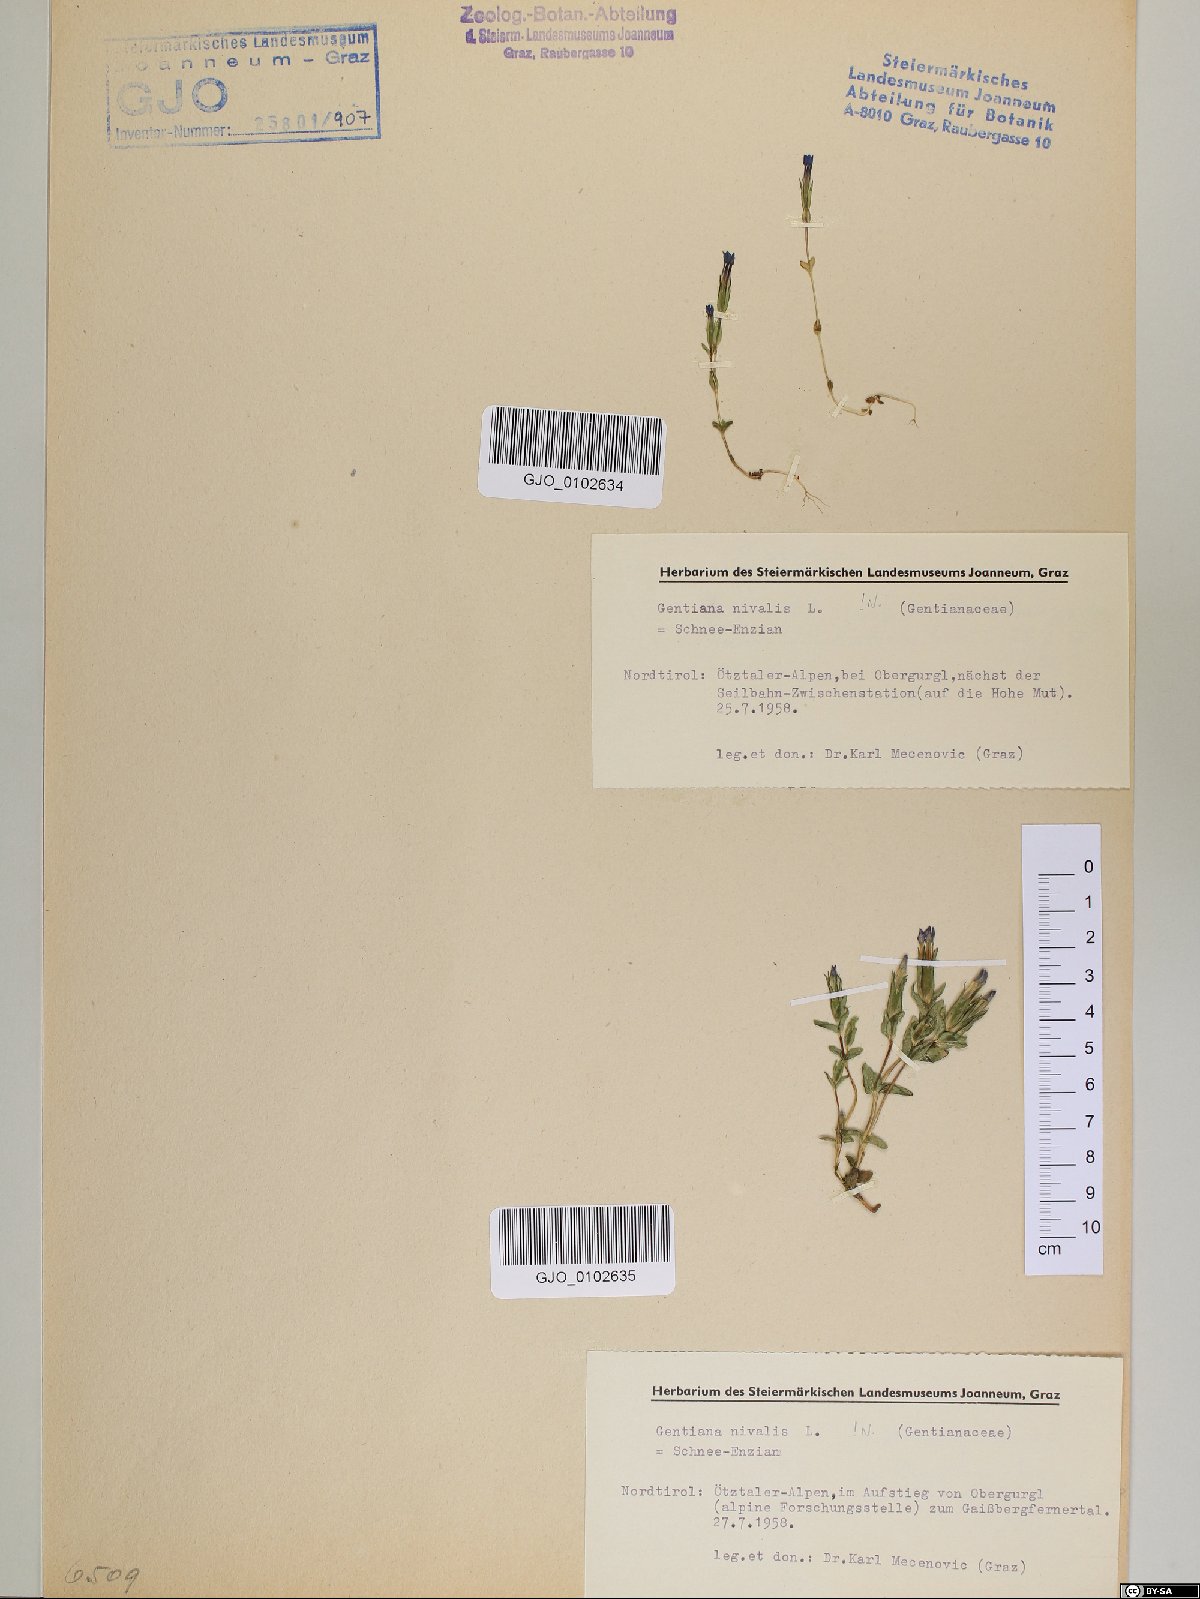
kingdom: Plantae
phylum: Tracheophyta
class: Magnoliopsida
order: Gentianales
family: Gentianaceae
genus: Gentiana
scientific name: Gentiana nivalis
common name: Alpine gentian
